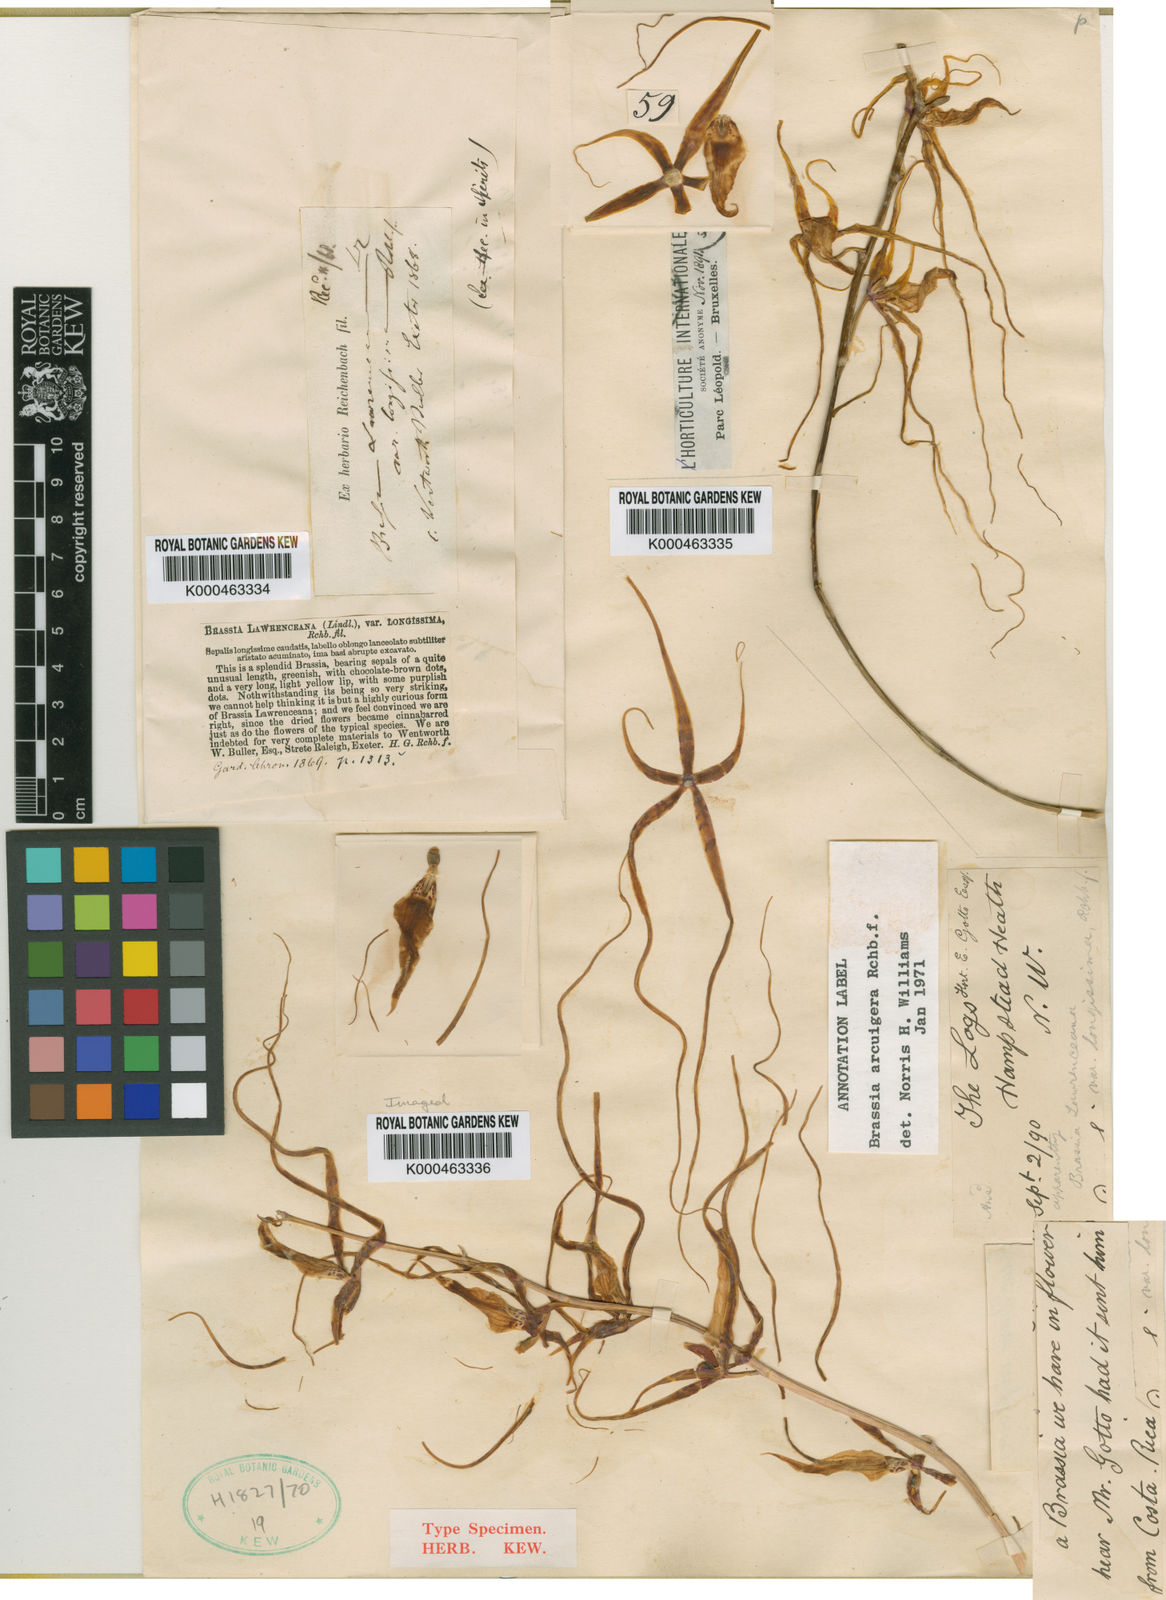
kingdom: Plantae
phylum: Tracheophyta
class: Liliopsida
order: Asparagales
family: Orchidaceae
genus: Brassia
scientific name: Brassia gireoudiana
